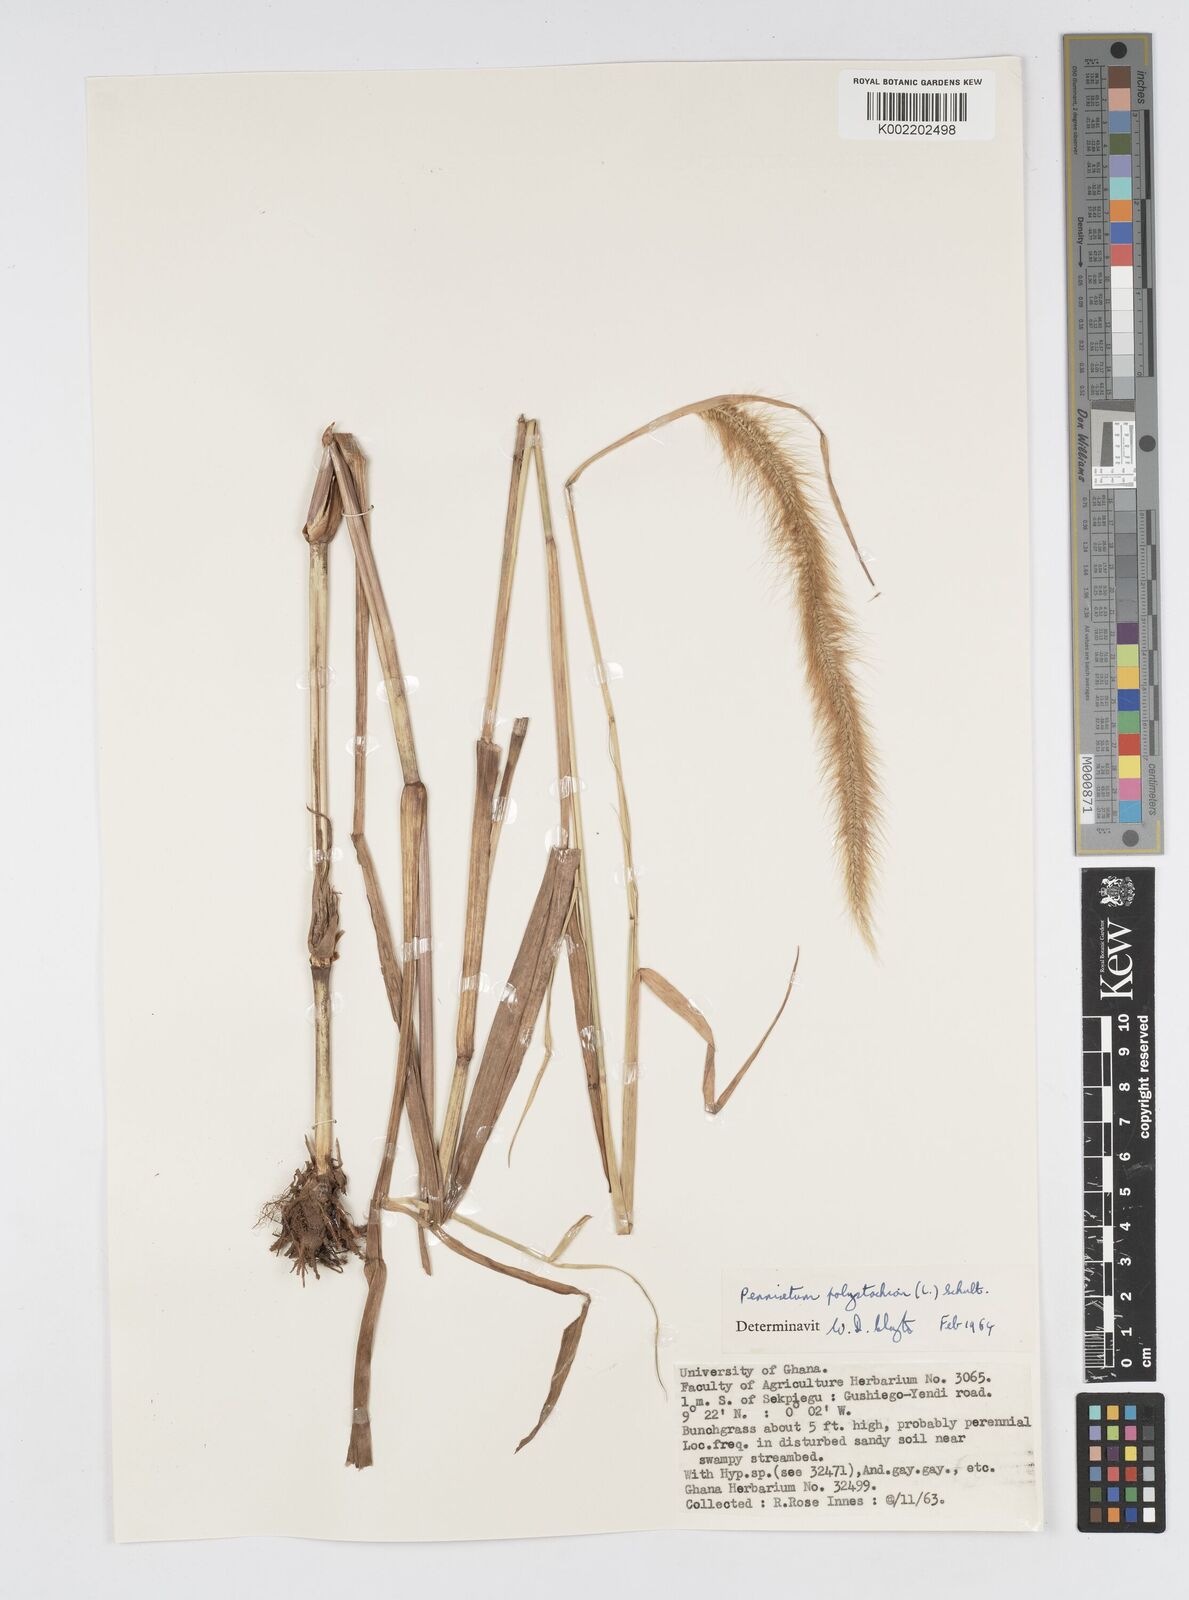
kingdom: Plantae
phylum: Tracheophyta
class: Liliopsida
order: Poales
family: Poaceae
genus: Setaria
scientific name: Setaria parviflora
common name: Knotroot bristle-grass
